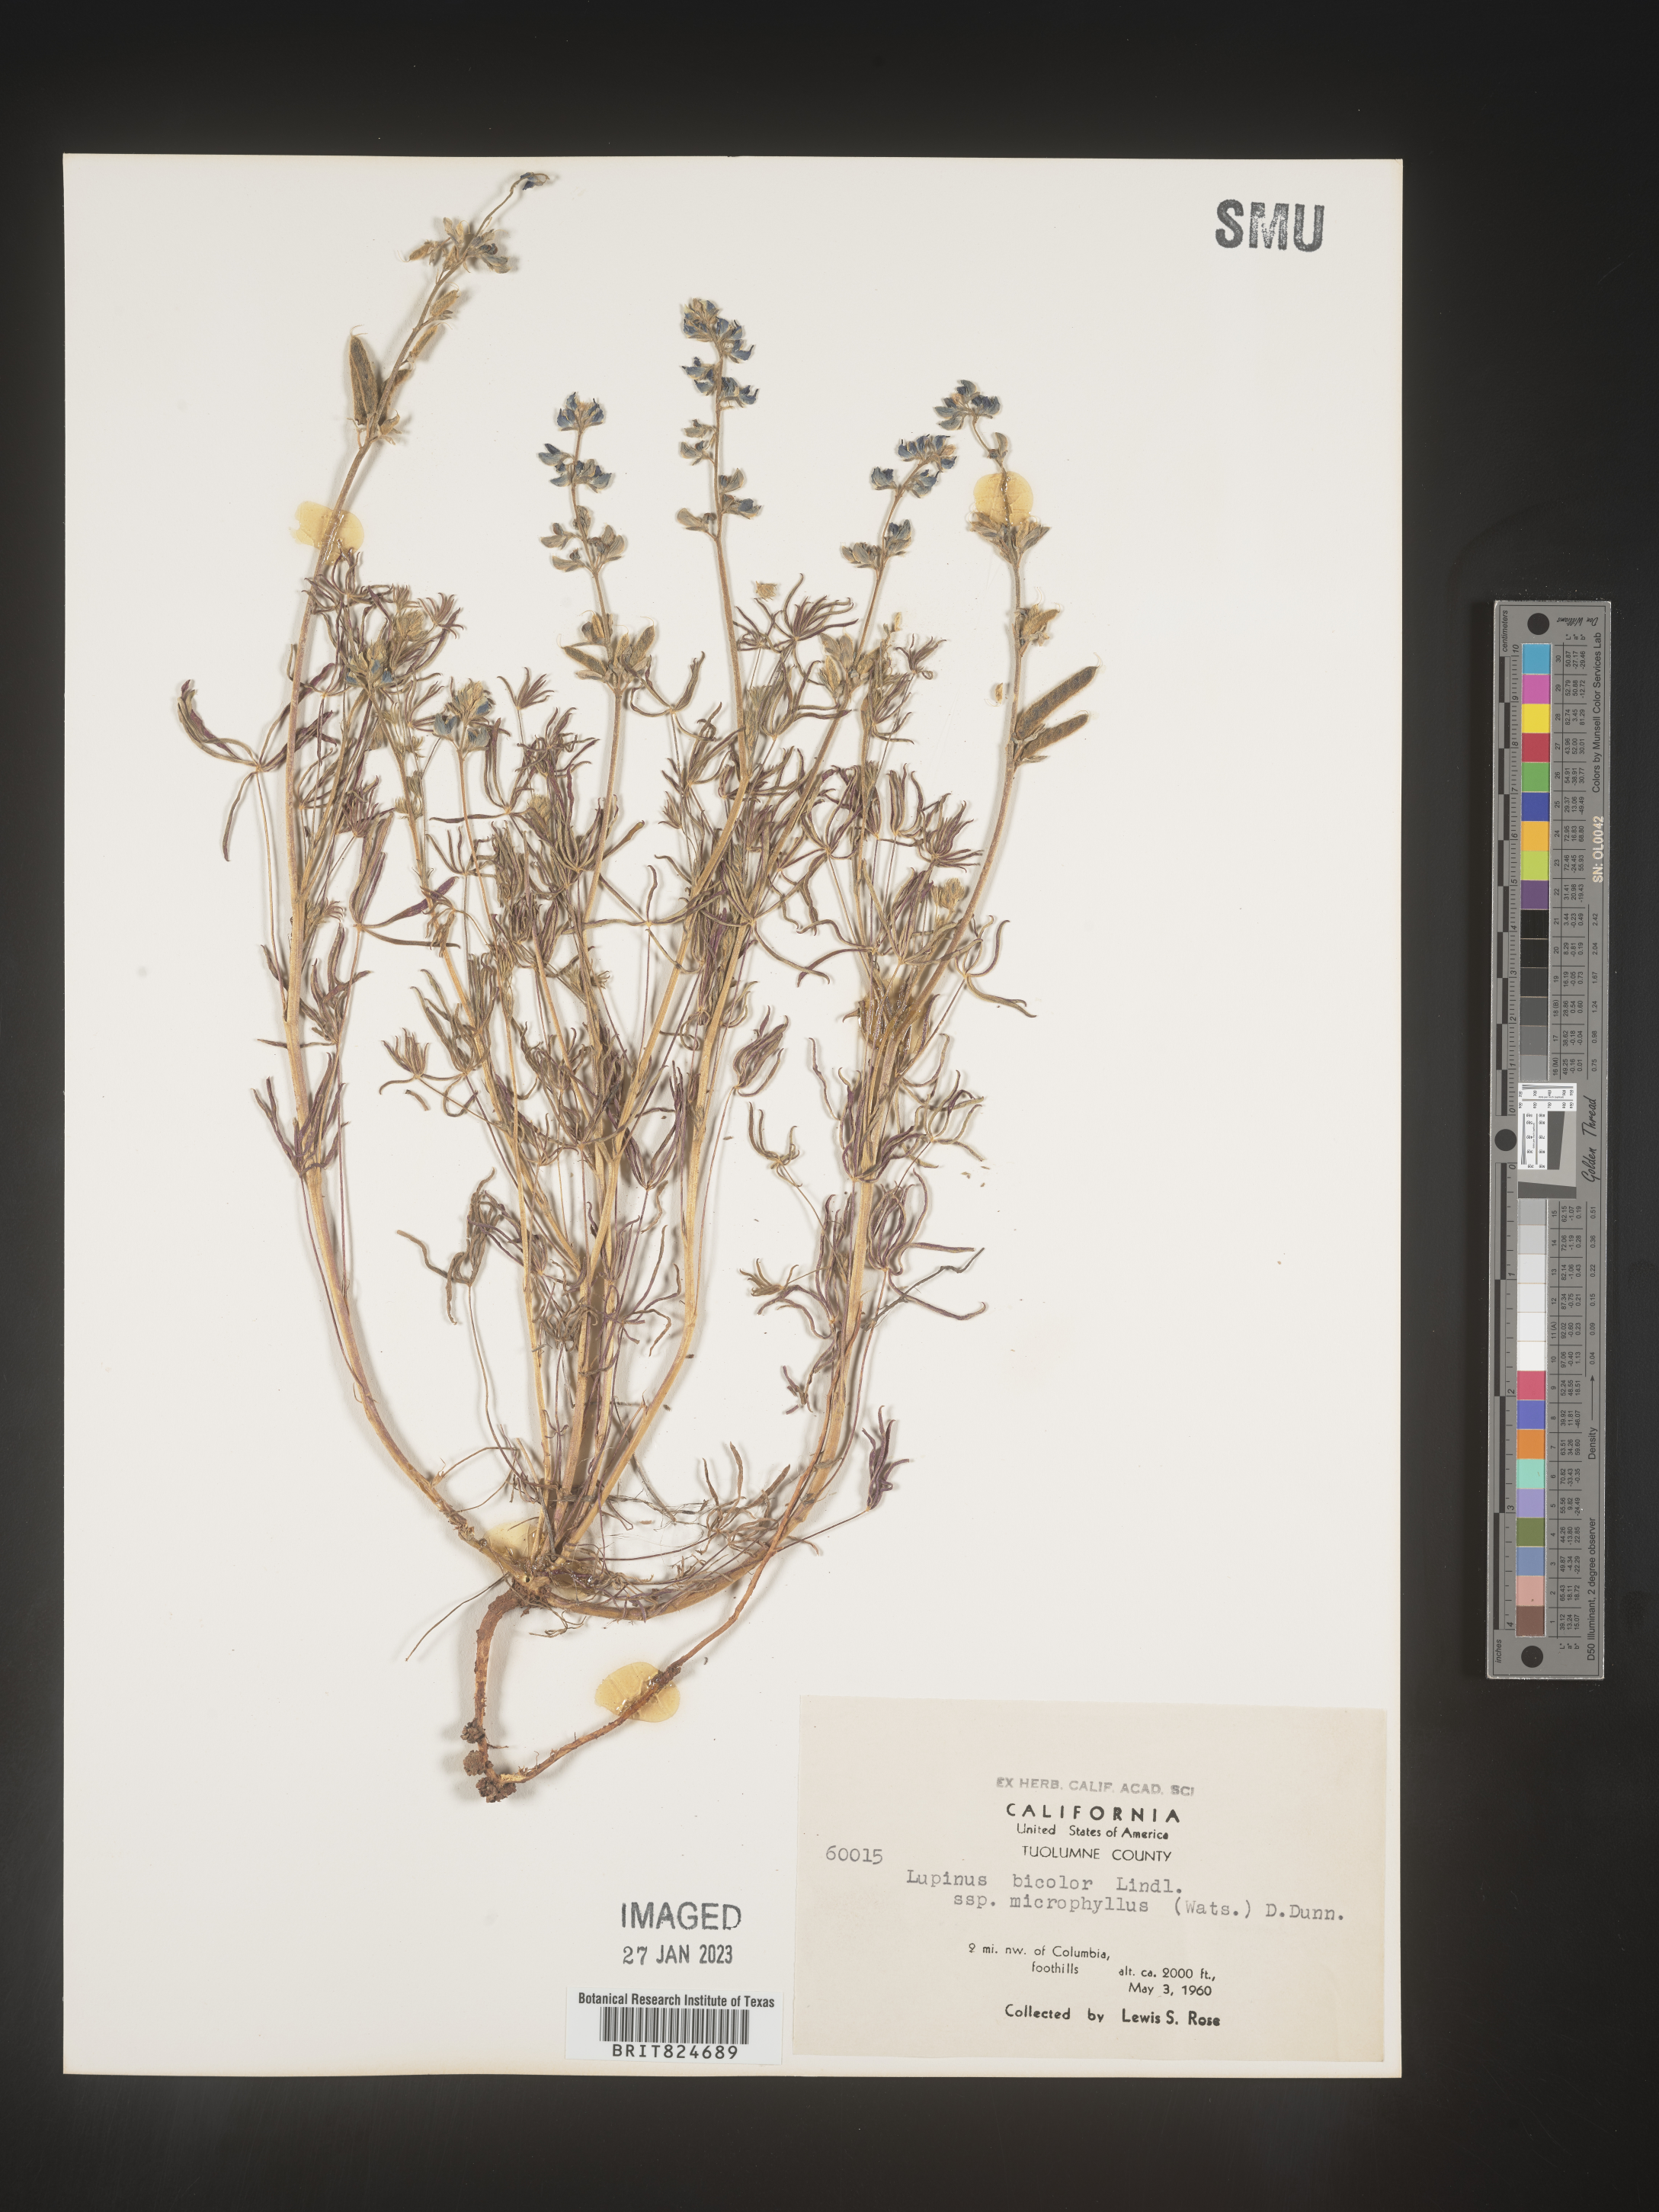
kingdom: Plantae
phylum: Tracheophyta
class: Magnoliopsida
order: Fabales
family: Fabaceae
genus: Lupinus
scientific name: Lupinus bicolor
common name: Miniature lupine
